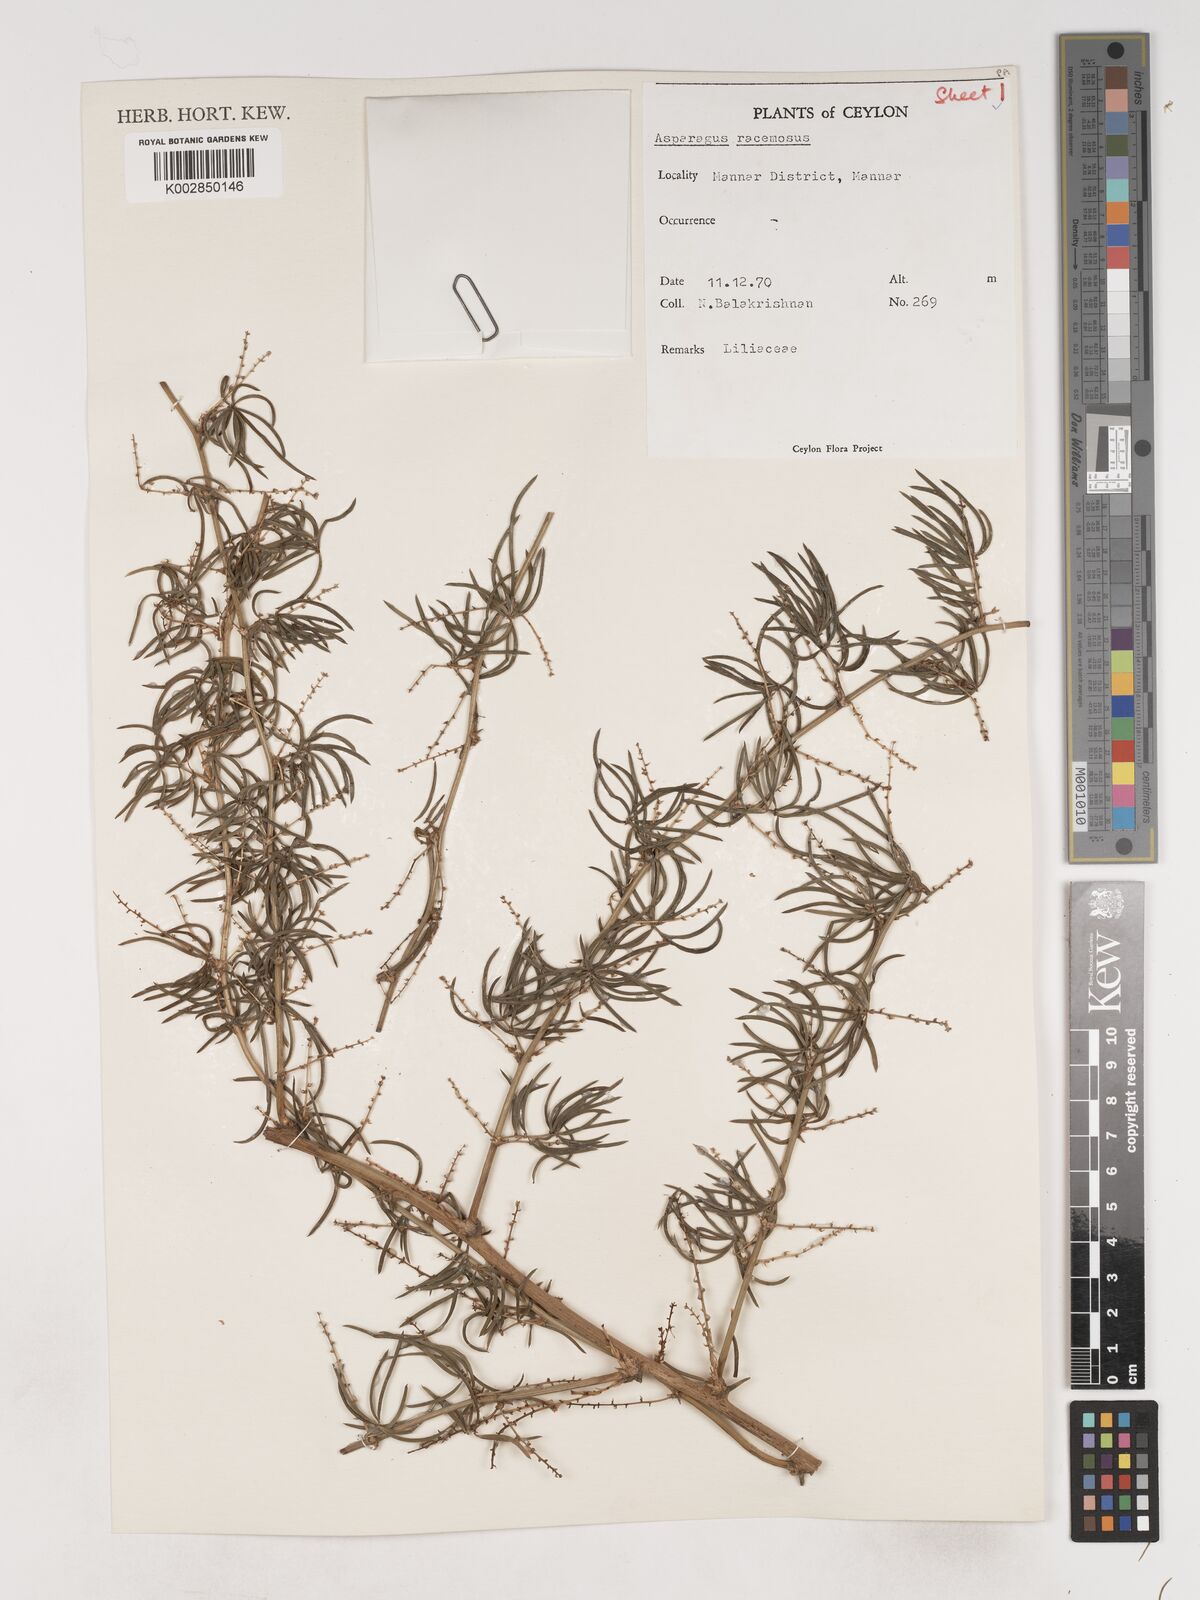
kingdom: Plantae
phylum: Tracheophyta
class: Liliopsida
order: Asparagales
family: Asparagaceae
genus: Asparagus
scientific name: Asparagus racemosus
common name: Asparagus-fern
